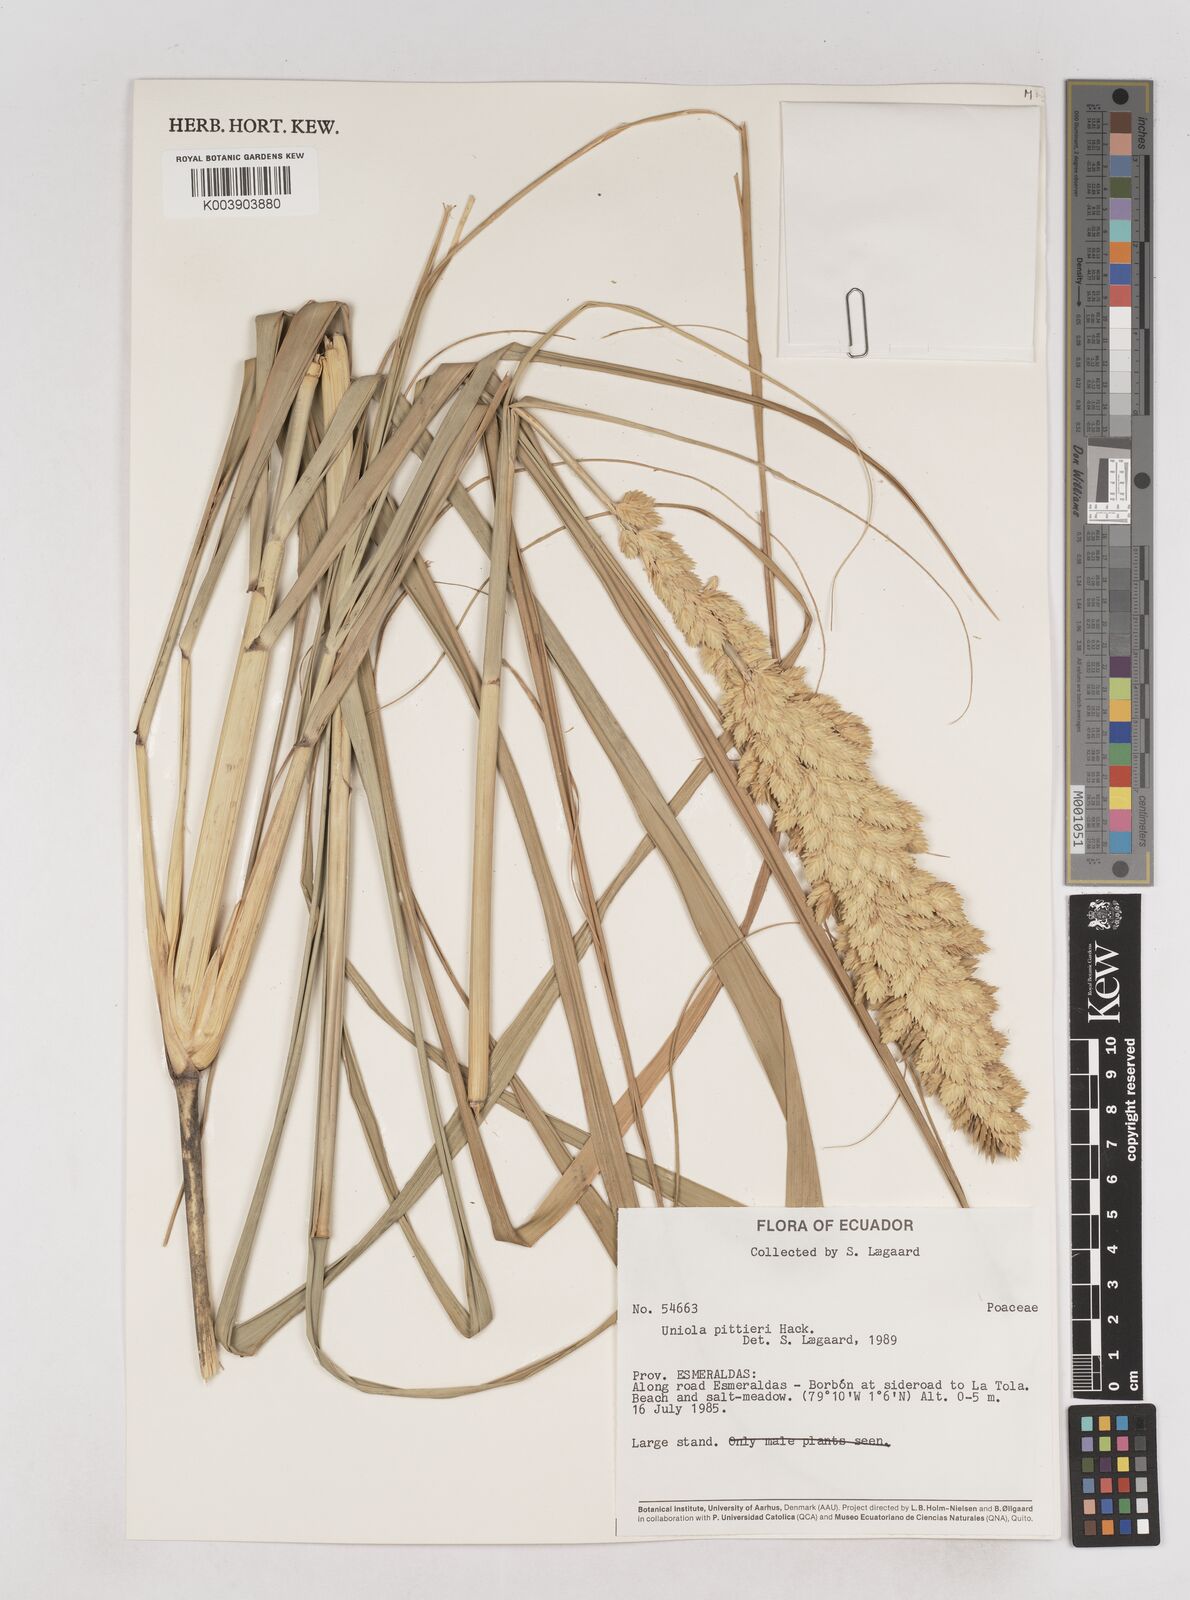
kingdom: Plantae
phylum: Tracheophyta
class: Liliopsida
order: Poales
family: Poaceae
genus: Uniola
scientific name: Uniola pittieri
